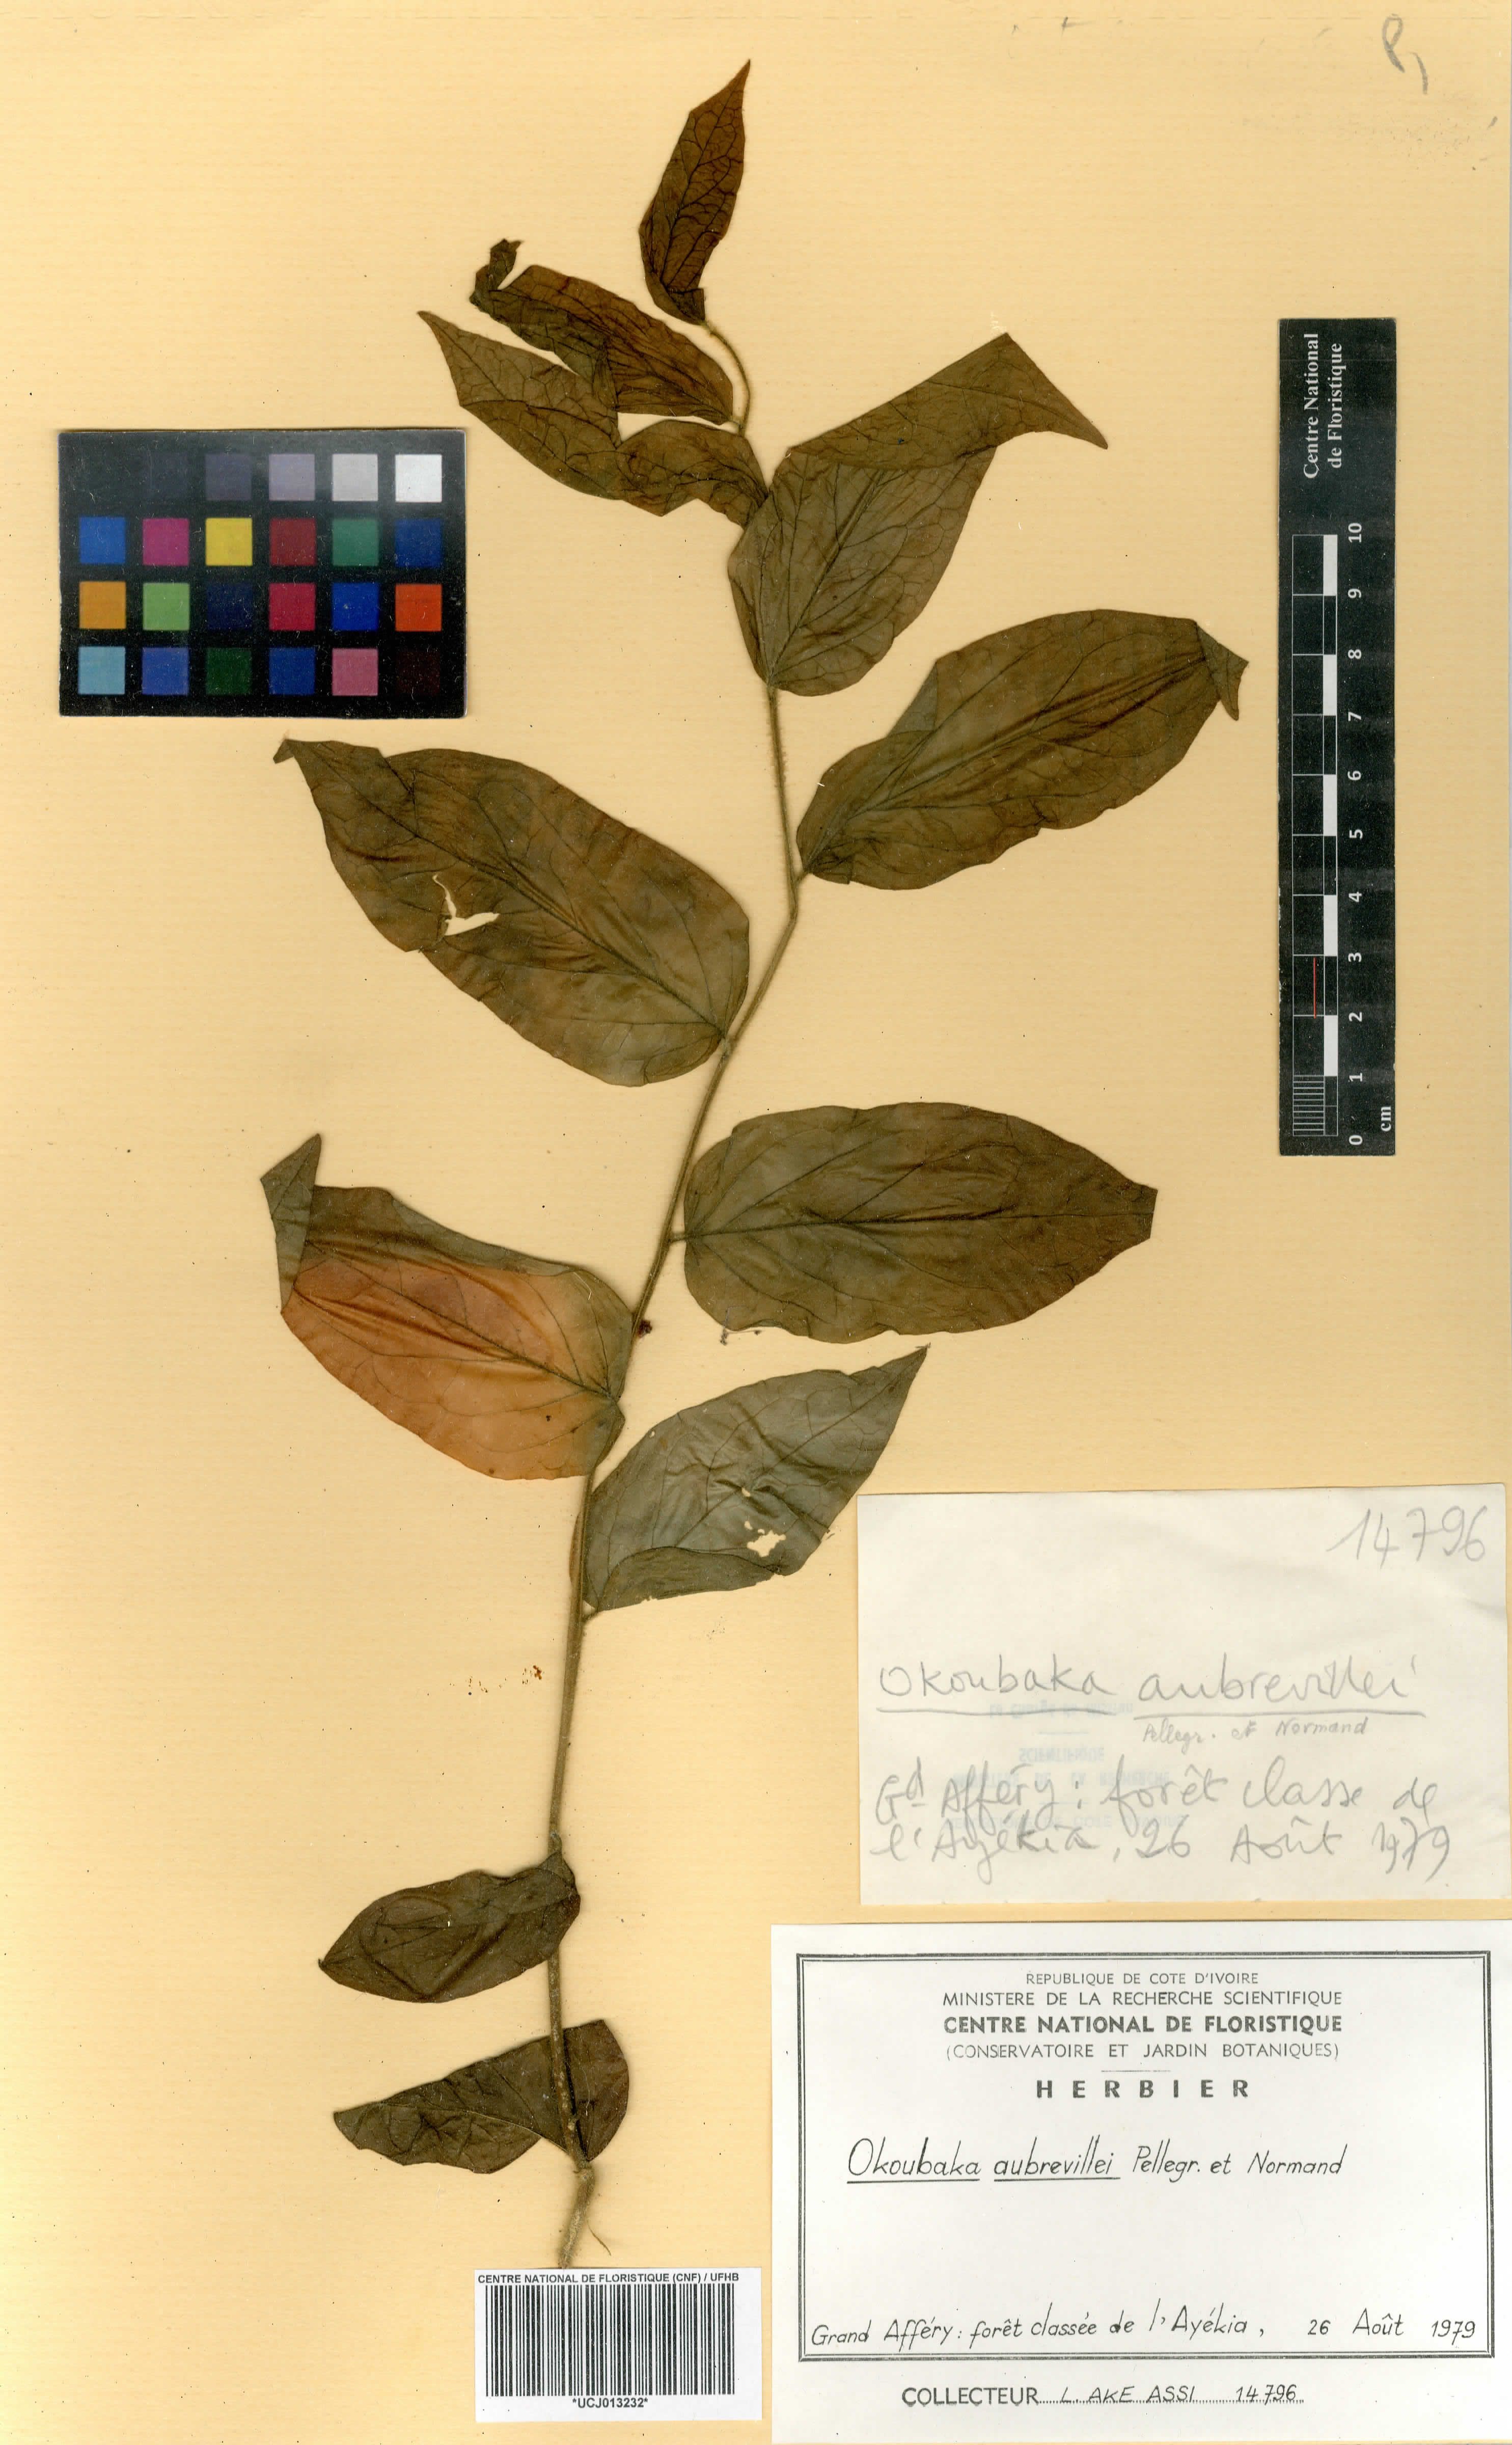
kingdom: Plantae
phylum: Tracheophyta
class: Magnoliopsida
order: Santalales
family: Cervantesiaceae
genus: Okoubaka
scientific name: Okoubaka aubrevillei
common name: Death tree
